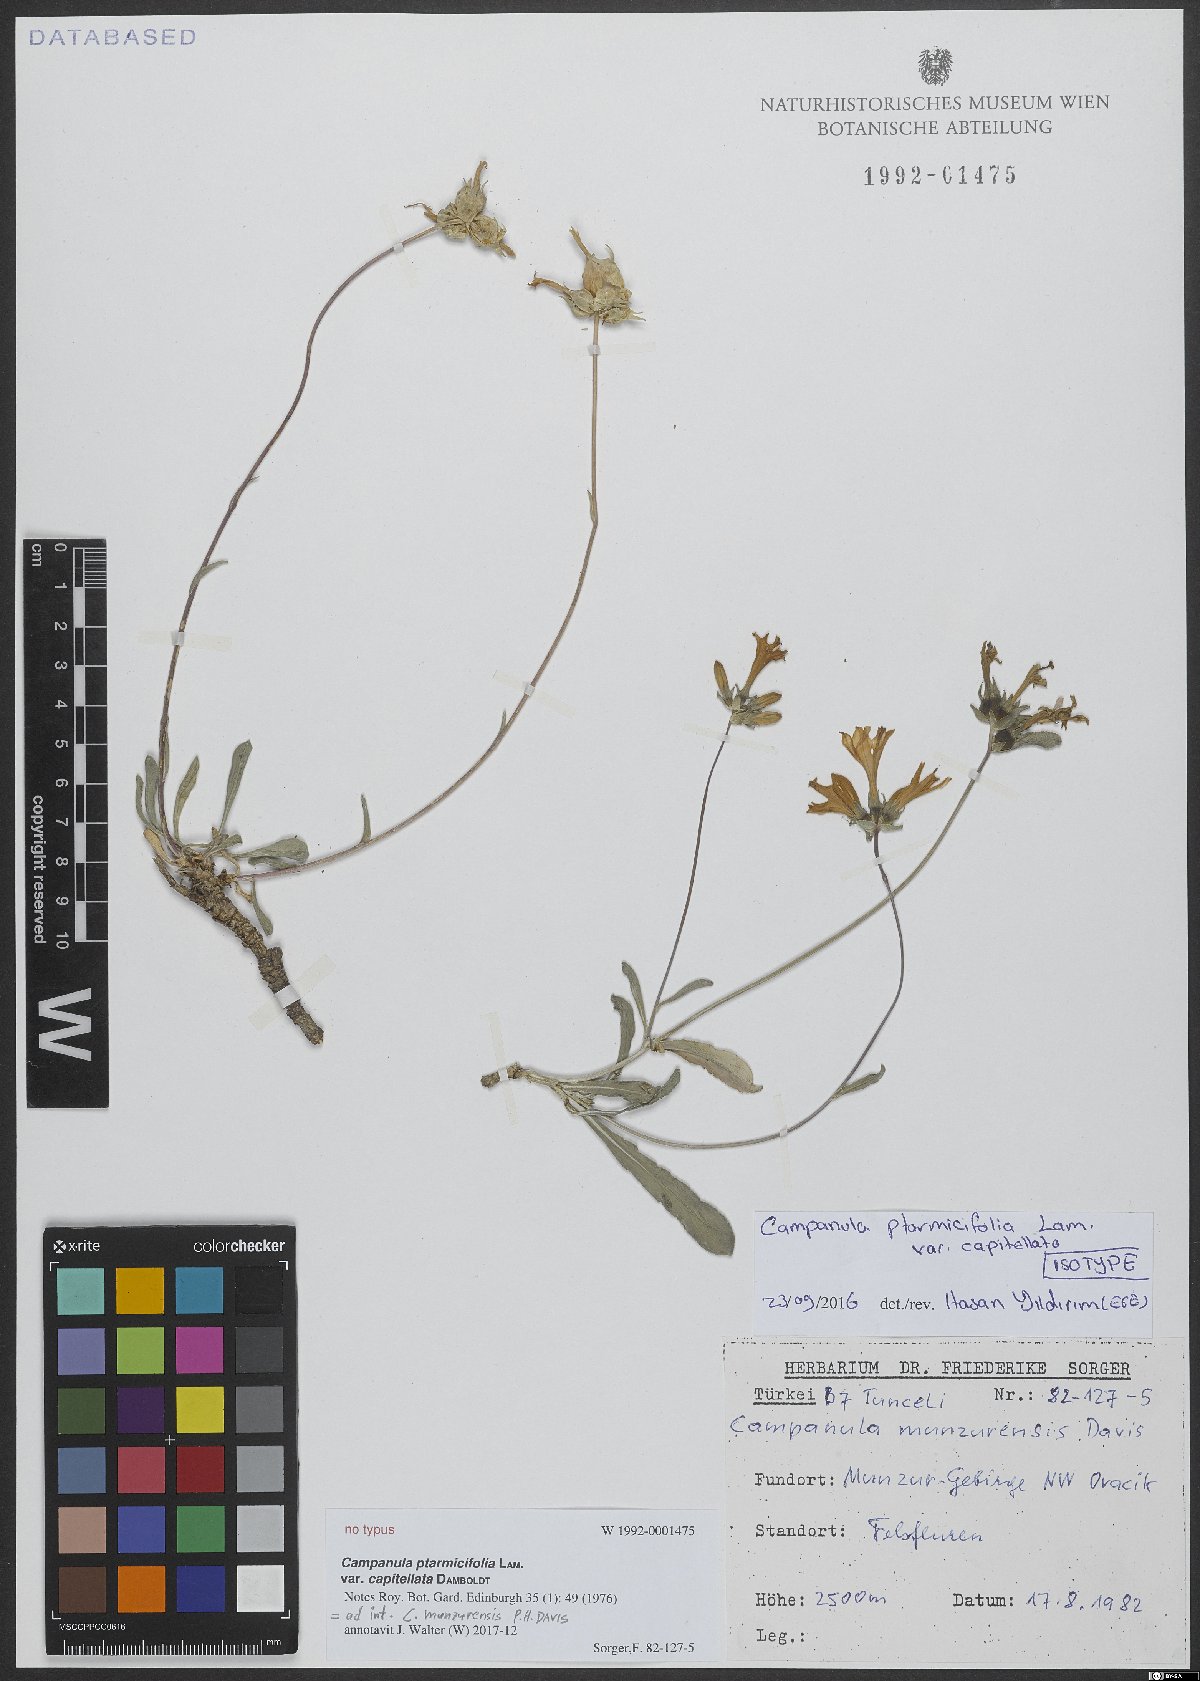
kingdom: Plantae
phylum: Tracheophyta
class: Magnoliopsida
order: Asterales
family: Campanulaceae
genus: Campanula
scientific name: Campanula munzurensis
